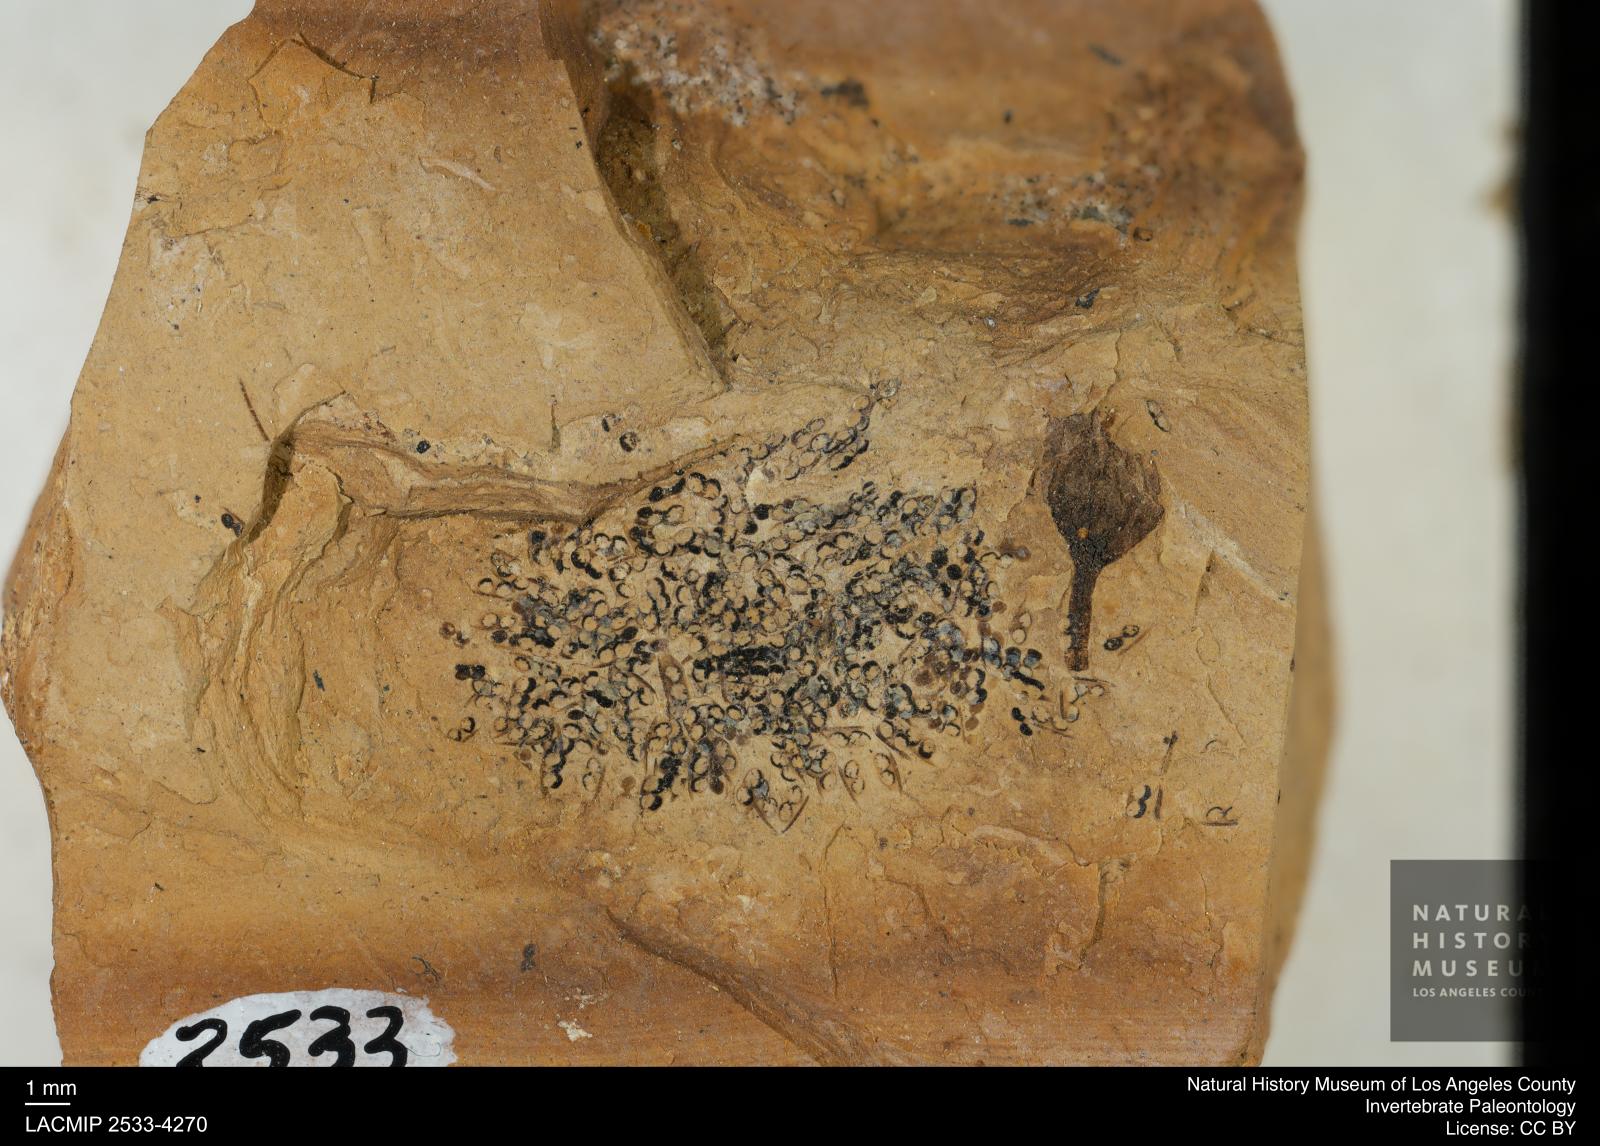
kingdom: Animalia
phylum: Arthropoda
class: Branchiopoda
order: Diplostraca
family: Daphniidae
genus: Daphnia
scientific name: Daphnia
